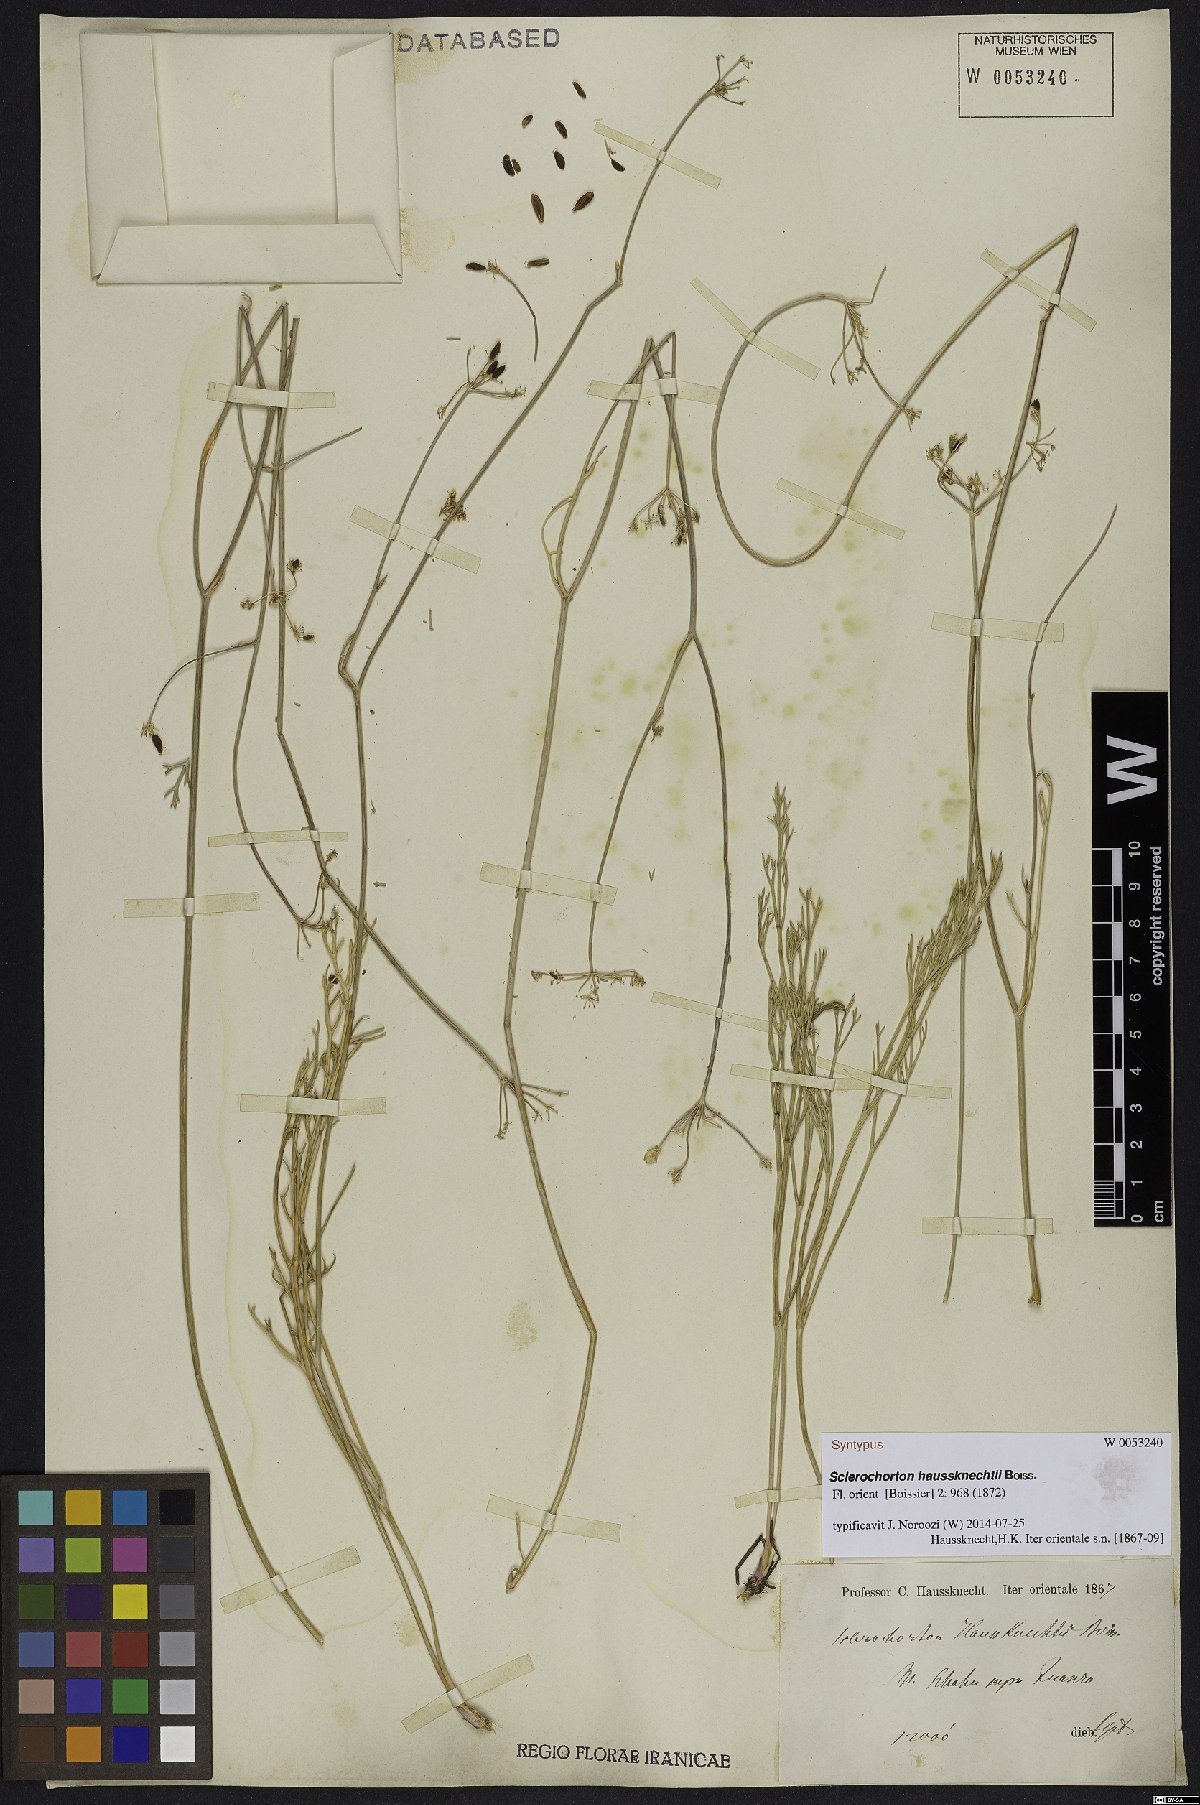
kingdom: Plantae
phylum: Tracheophyta
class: Magnoliopsida
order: Apiales
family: Apiaceae
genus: Sclerochorton
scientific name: Sclerochorton haussknechtii
